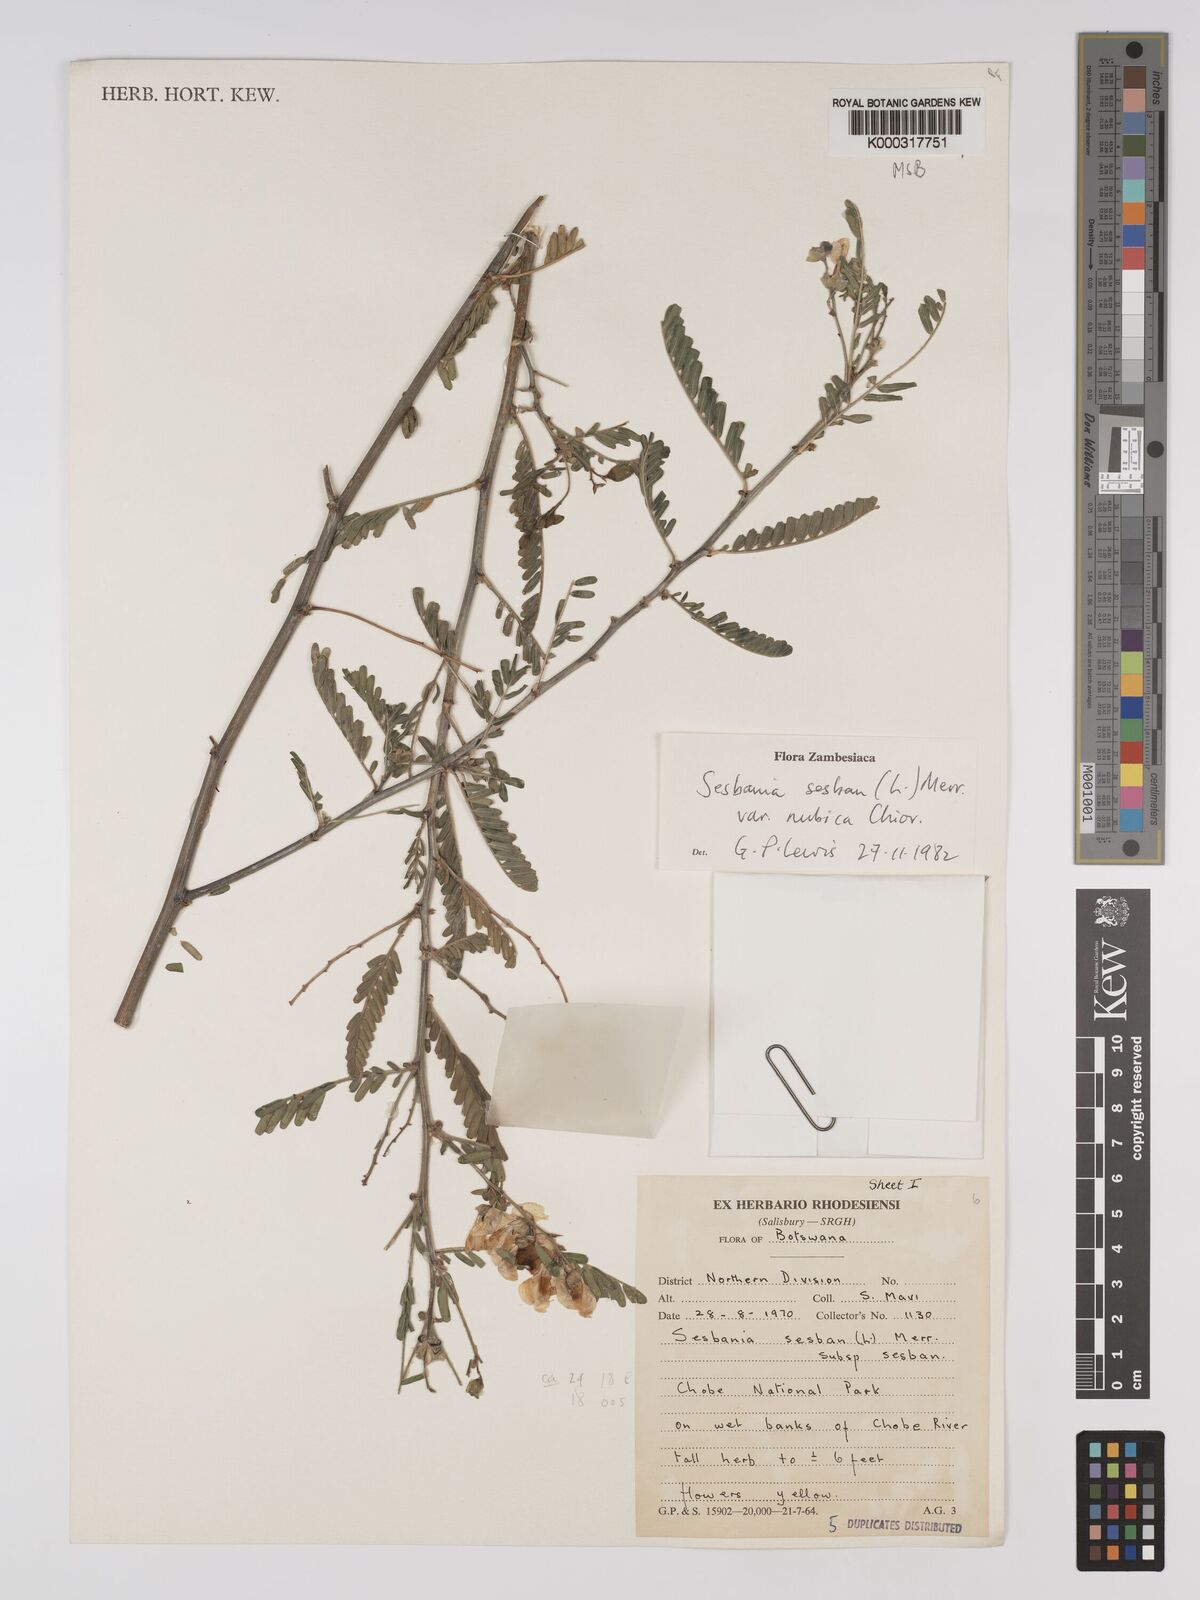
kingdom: Plantae
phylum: Tracheophyta
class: Magnoliopsida
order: Fabales
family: Fabaceae
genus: Sesbania
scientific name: Sesbania sesban
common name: Egyptian sesban
